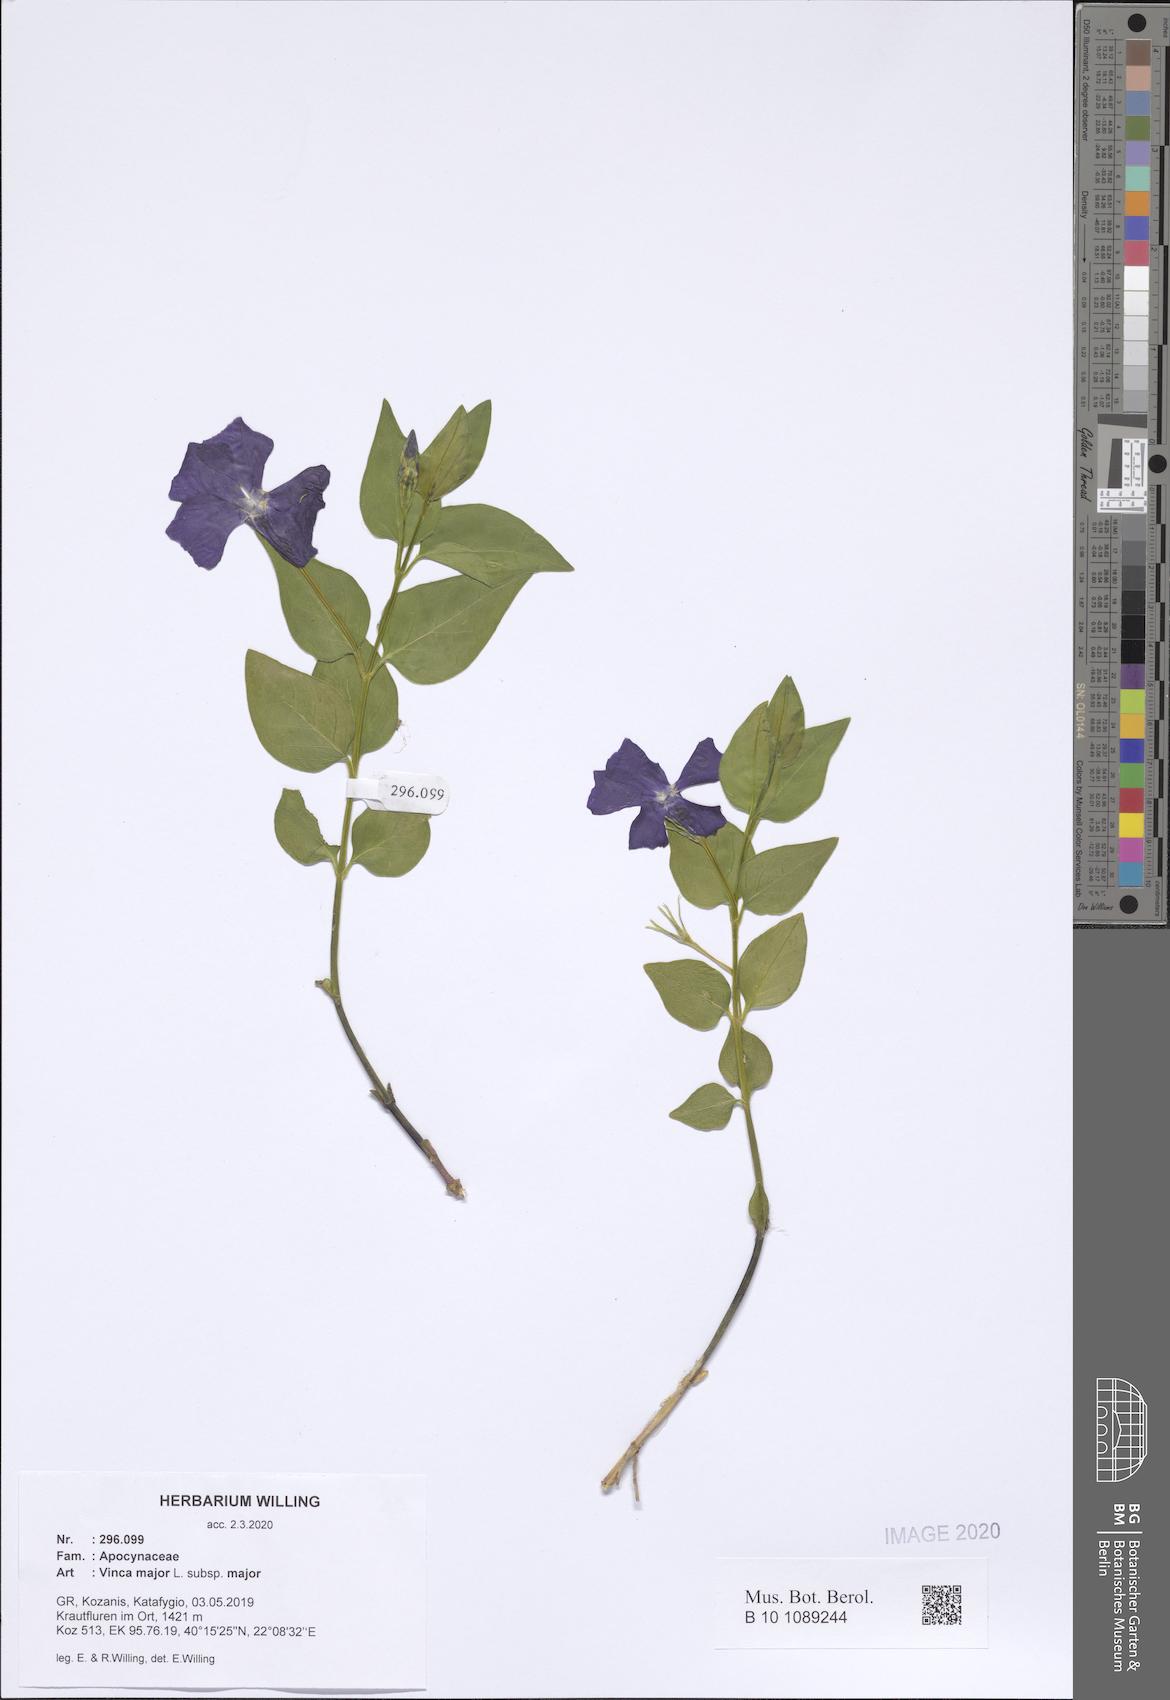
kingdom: Plantae
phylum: Tracheophyta
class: Magnoliopsida
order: Gentianales
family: Apocynaceae
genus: Vinca
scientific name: Vinca major
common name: Greater periwinkle
